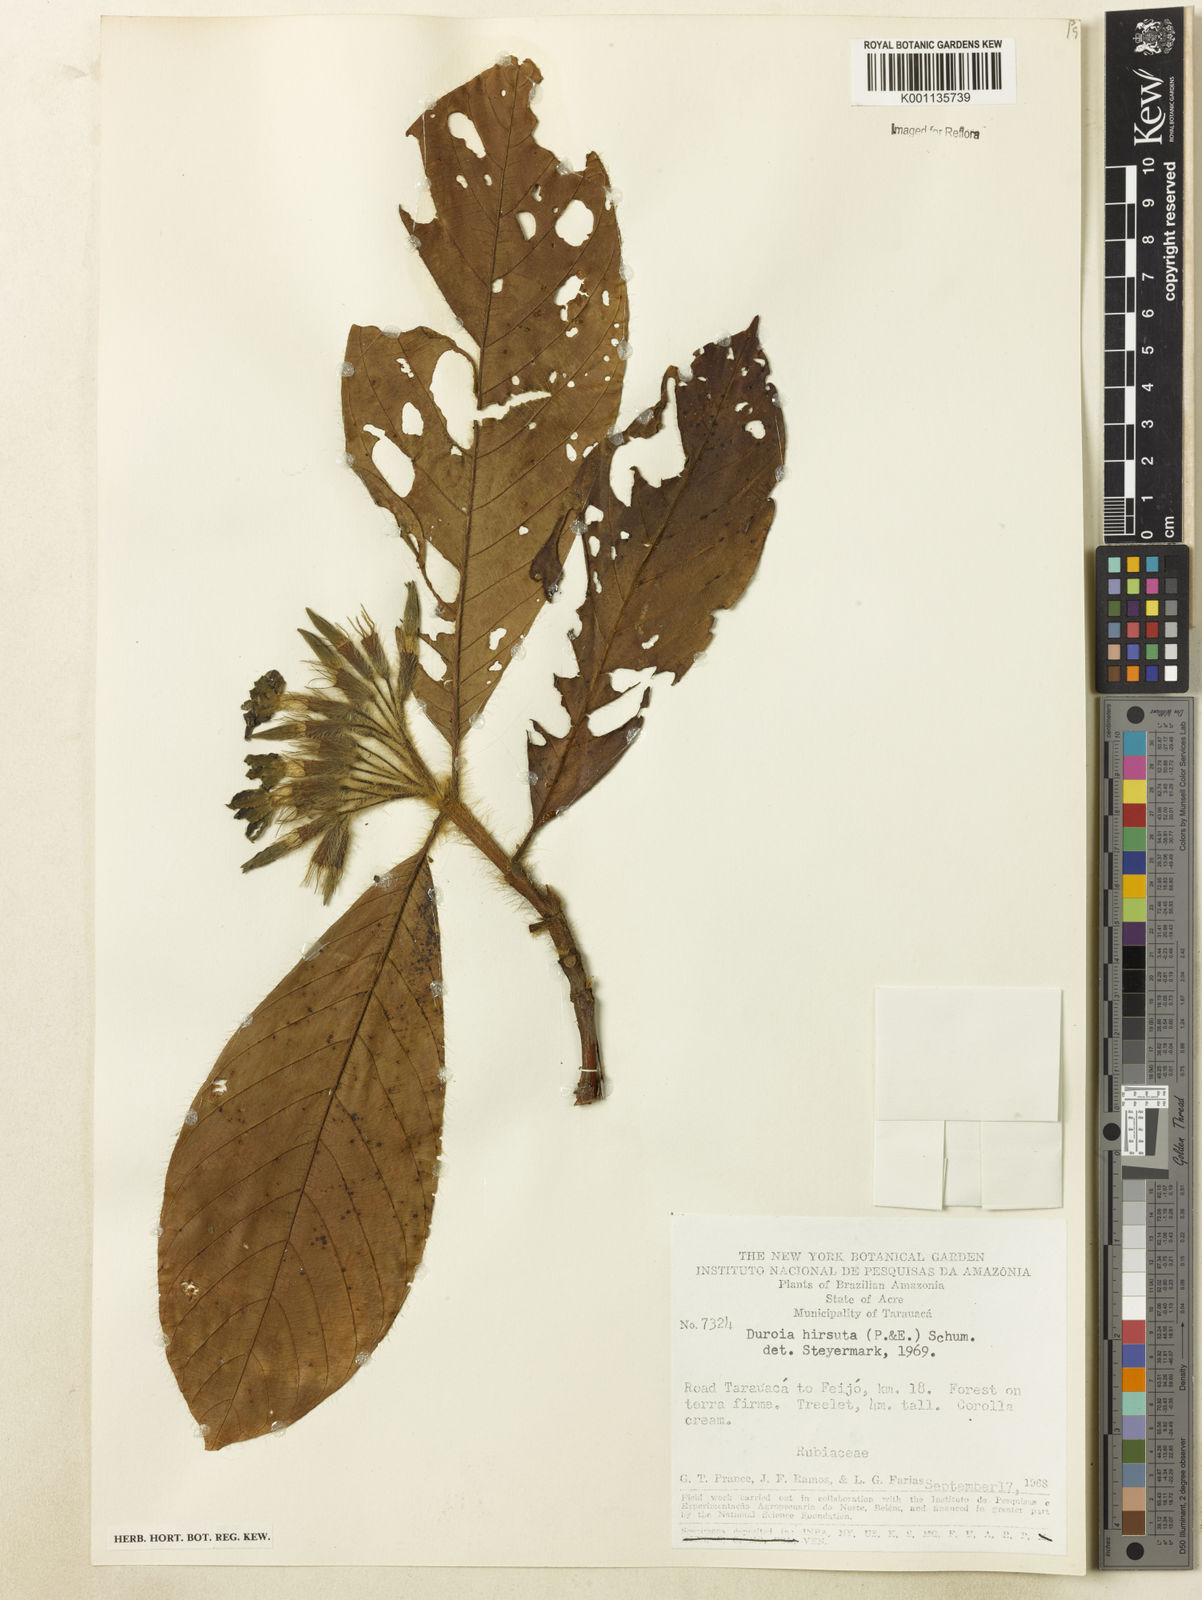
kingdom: Plantae
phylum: Tracheophyta
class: Magnoliopsida
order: Gentianales
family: Rubiaceae
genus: Duroia
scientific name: Duroia hirsuta
